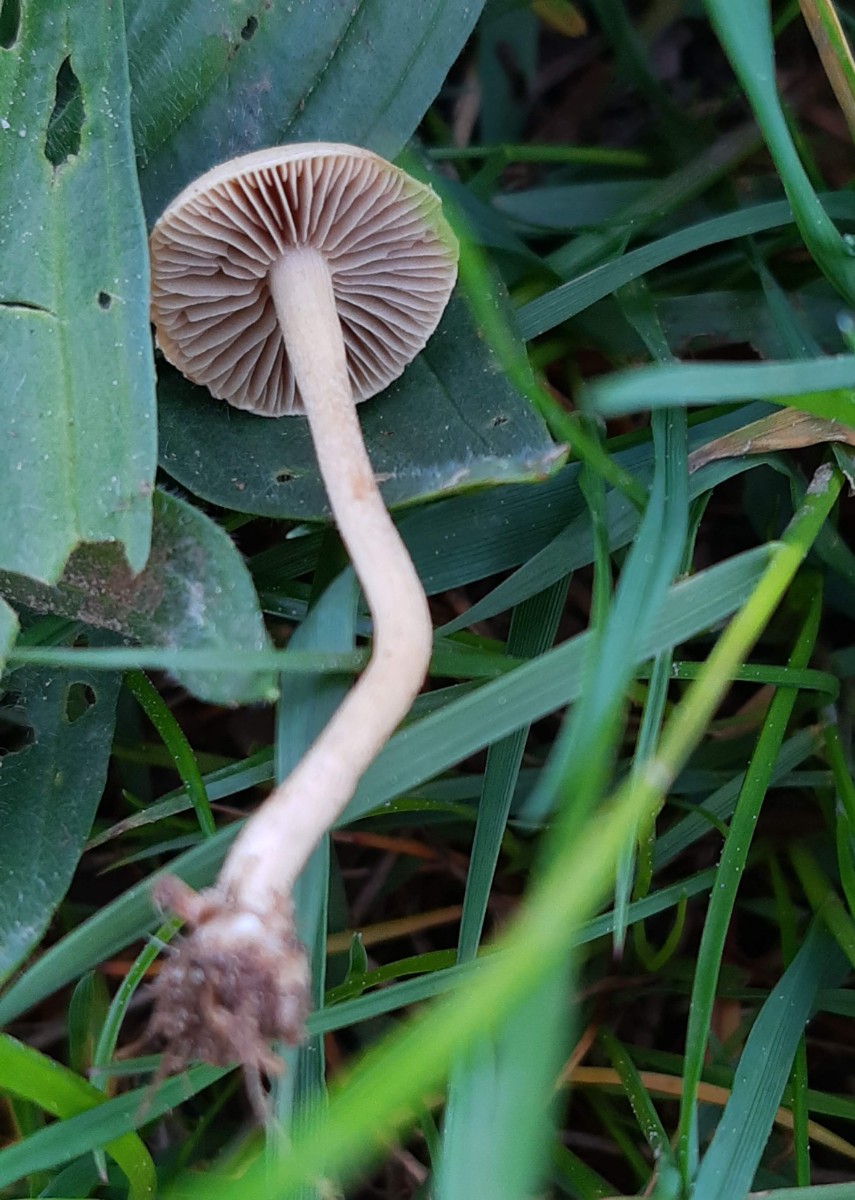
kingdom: Fungi
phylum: Basidiomycota
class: Agaricomycetes
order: Agaricales
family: Strophariaceae
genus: Agrocybe
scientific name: Agrocybe pediades
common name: almindelig agerhat
